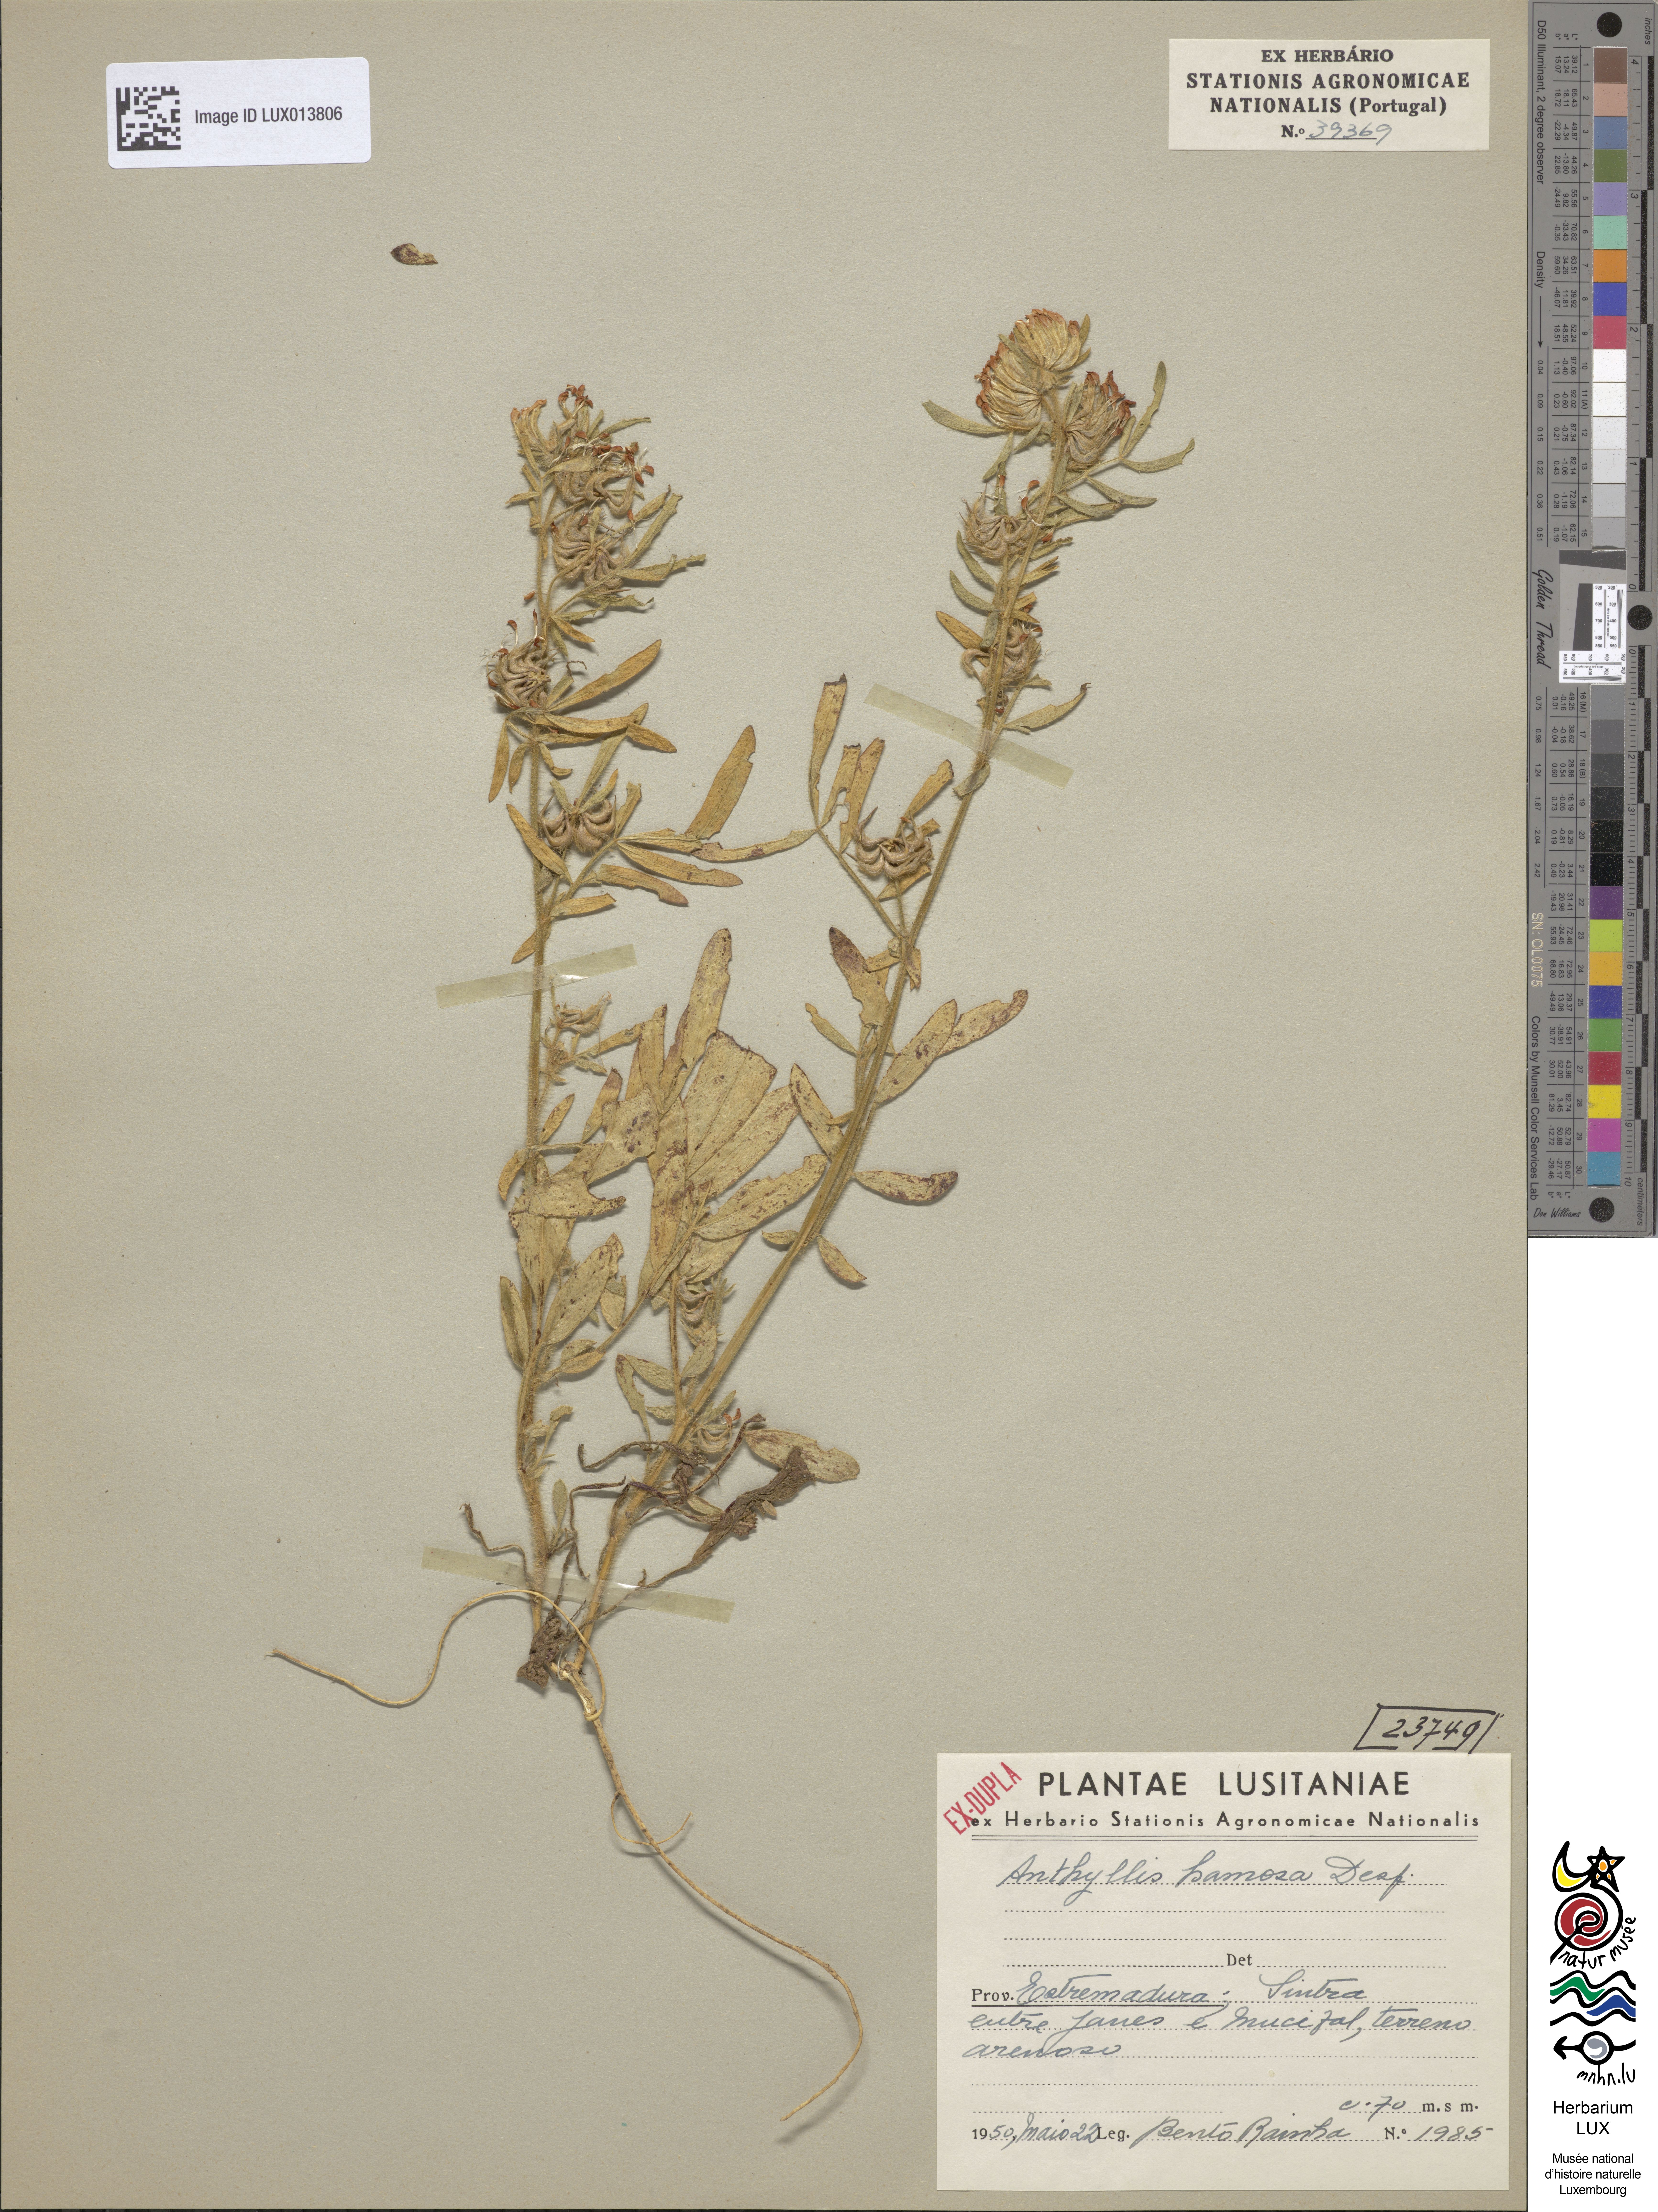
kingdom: Plantae
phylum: Tracheophyta
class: Magnoliopsida
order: Fabales
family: Fabaceae
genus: Anthyllis
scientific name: Anthyllis hamosa
